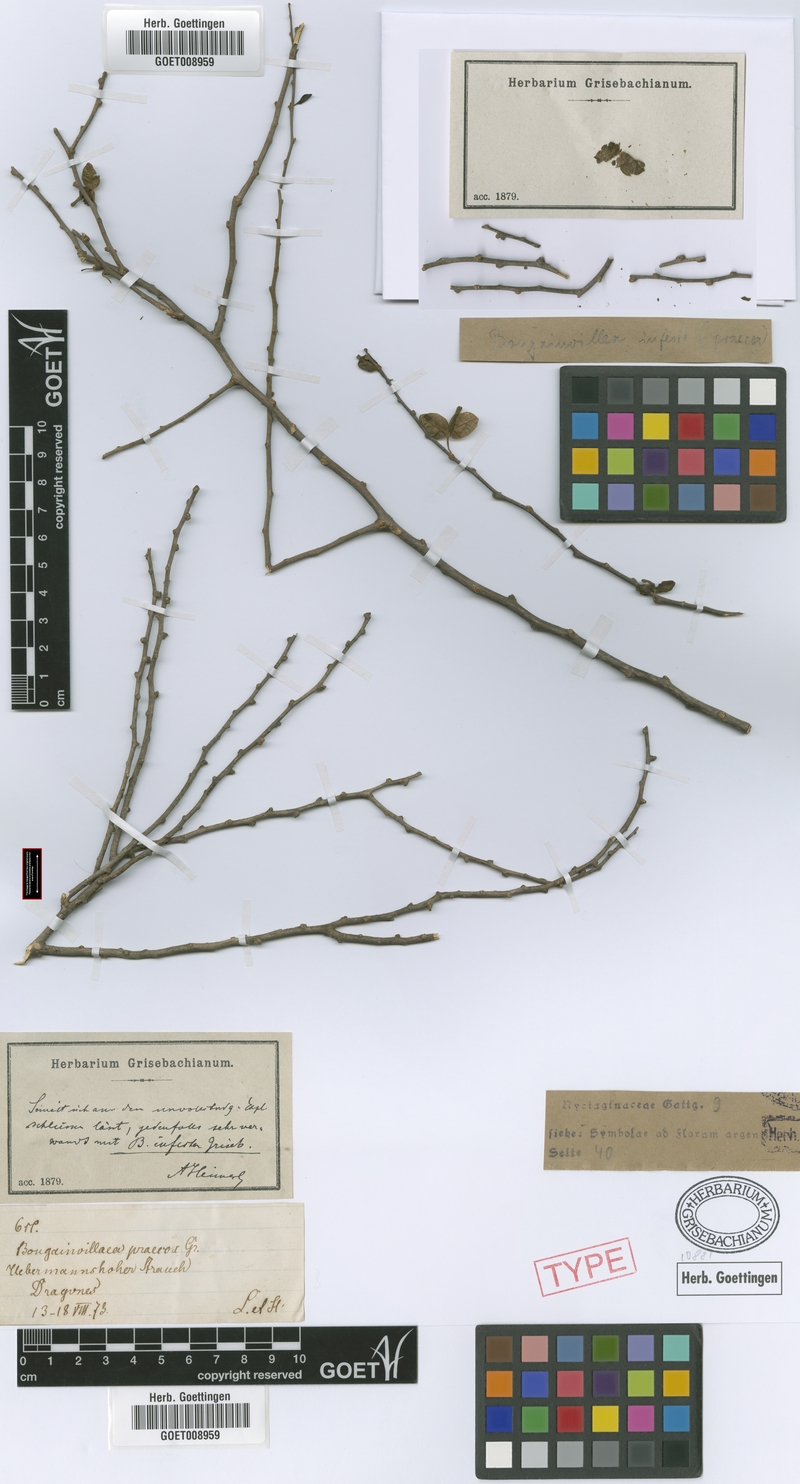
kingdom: Plantae
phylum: Tracheophyta
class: Magnoliopsida
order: Caryophyllales
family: Nyctaginaceae
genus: Bougainvillea
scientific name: Bougainvillea praecox
